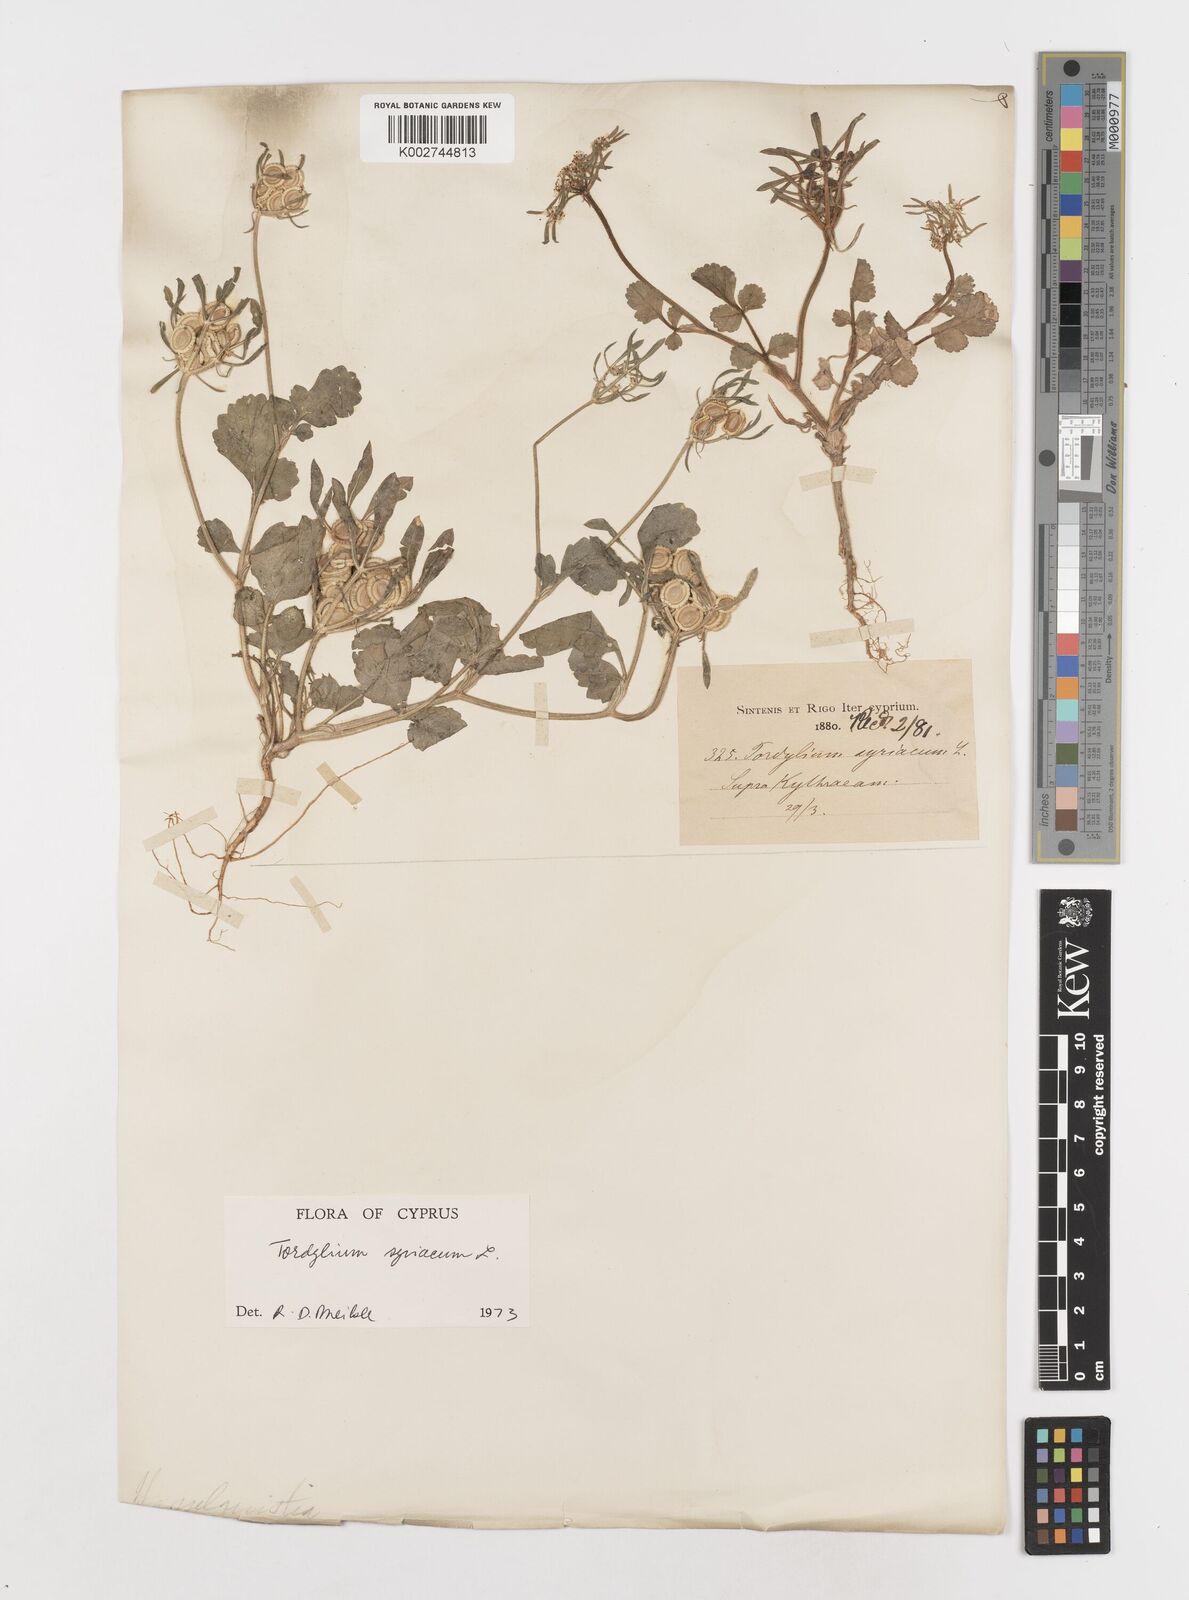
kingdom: Plantae
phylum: Tracheophyta
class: Magnoliopsida
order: Apiales
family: Apiaceae
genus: Tordylium
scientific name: Tordylium syriacum
